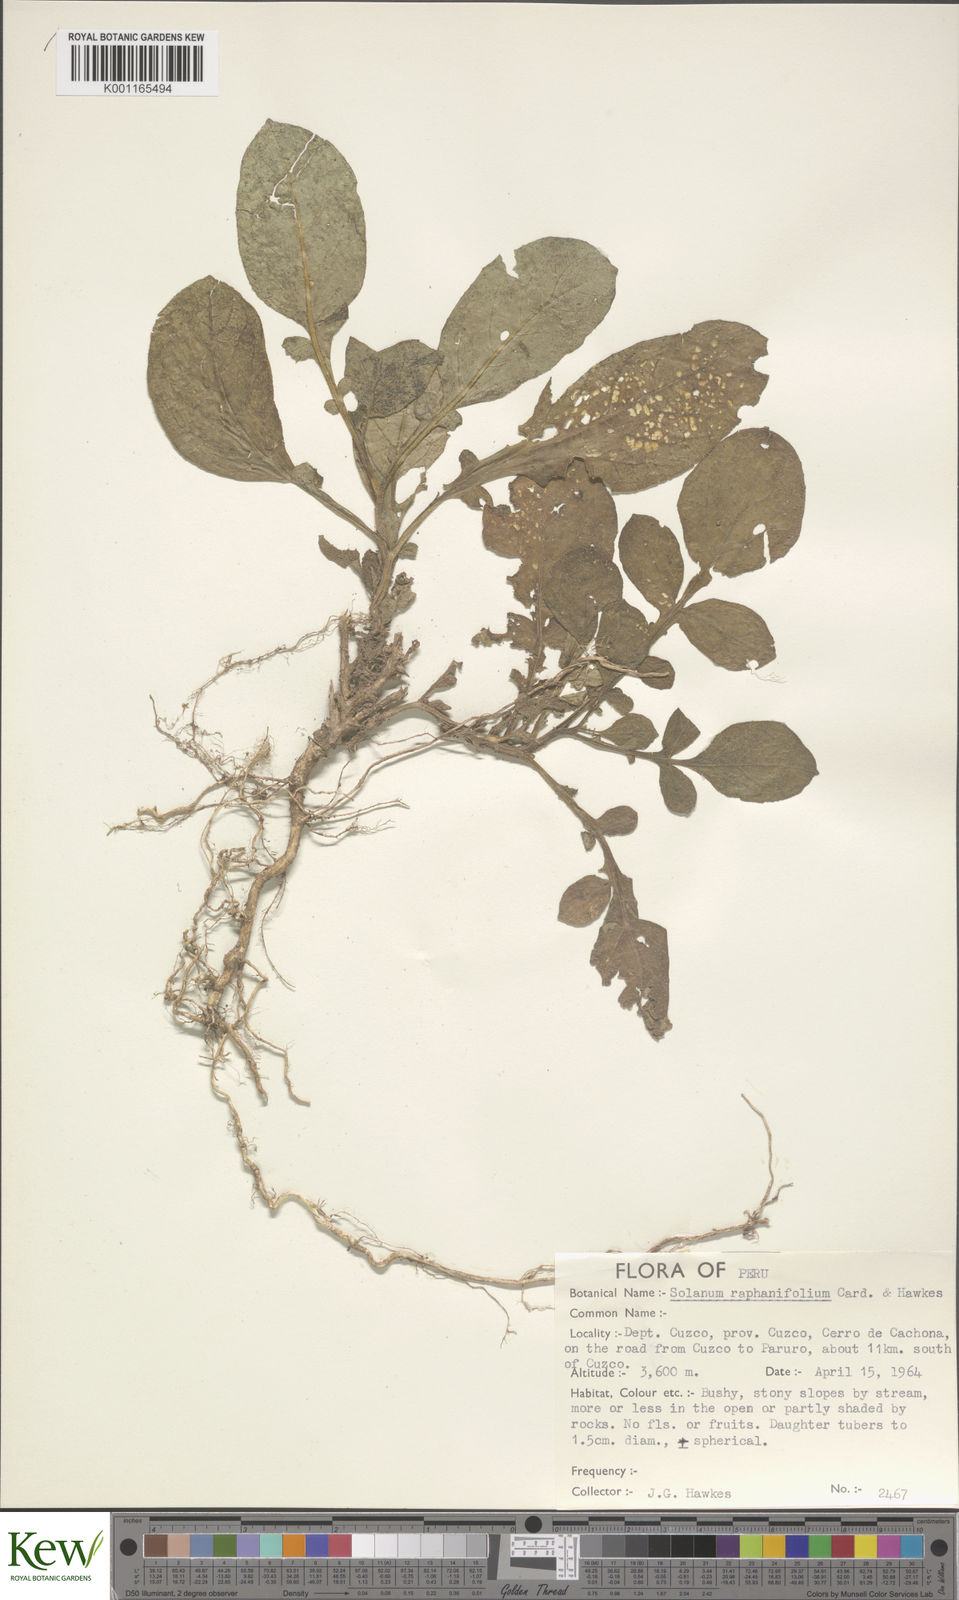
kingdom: Plantae
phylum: Tracheophyta
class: Magnoliopsida
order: Solanales
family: Solanaceae
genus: Solanum
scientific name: Solanum raphanifolium
